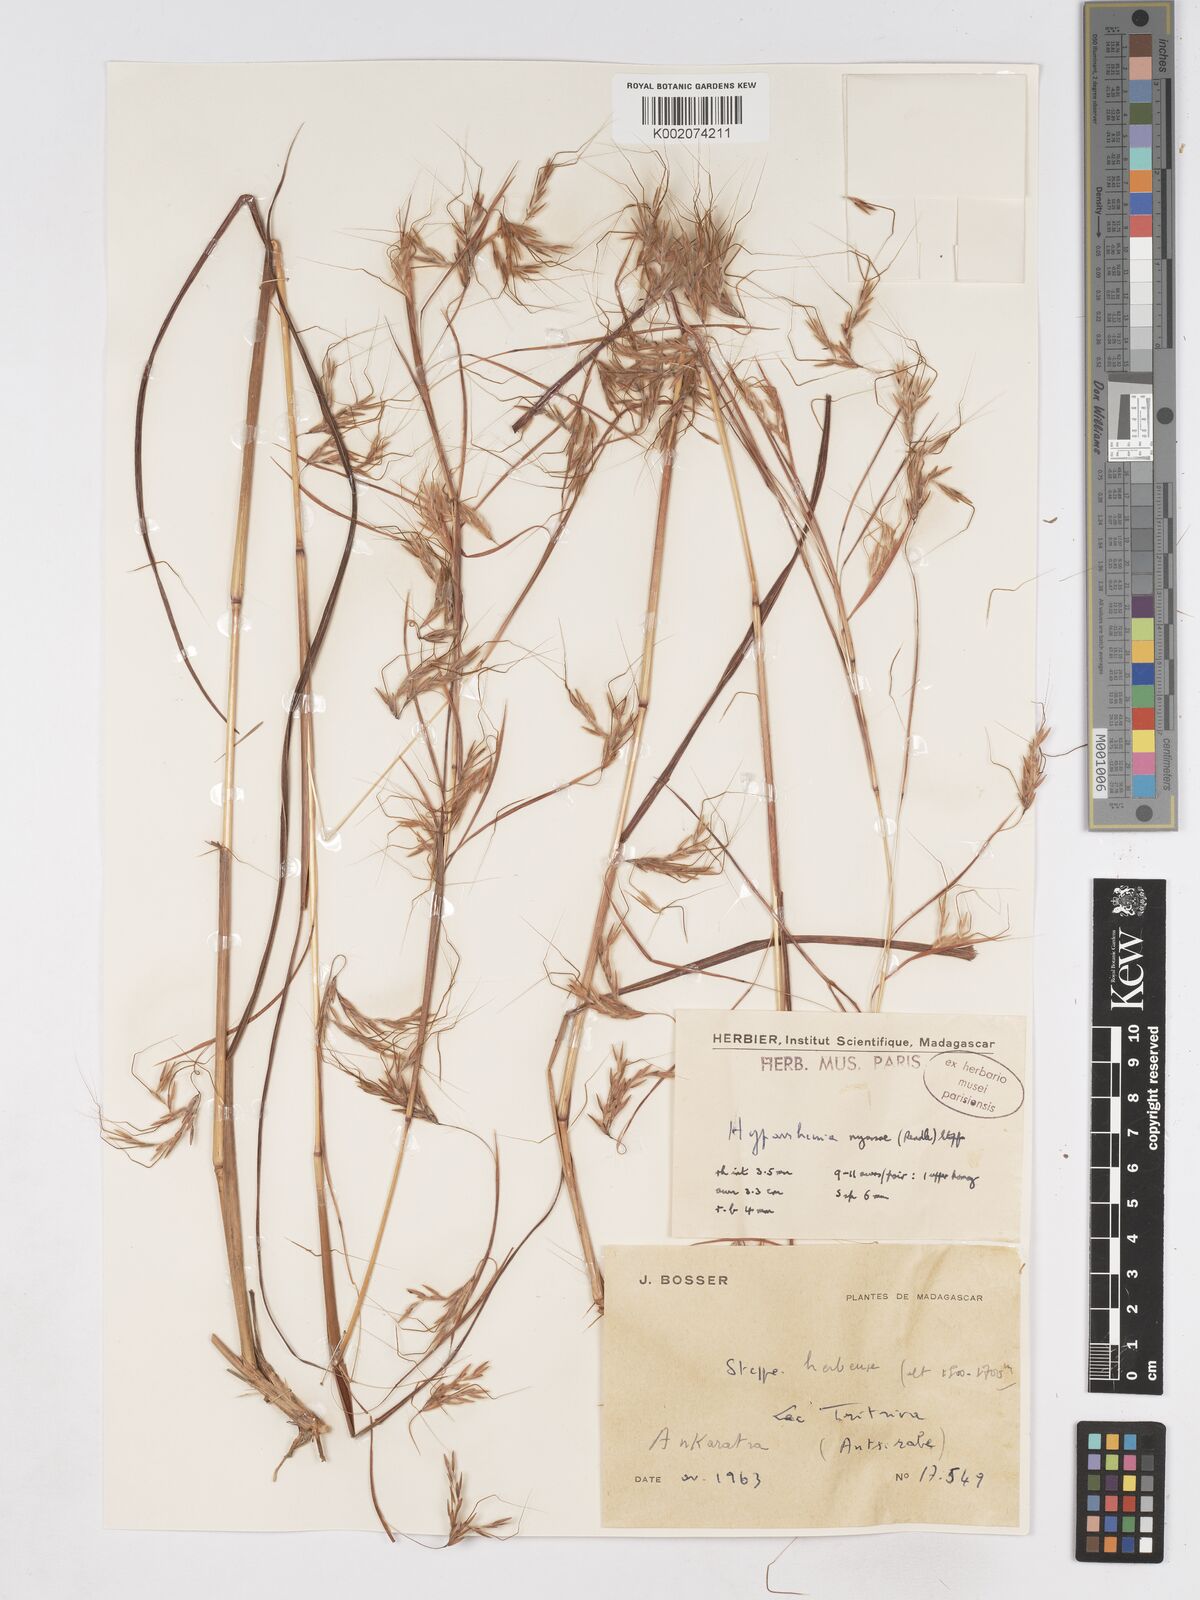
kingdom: Plantae
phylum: Tracheophyta
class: Liliopsida
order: Poales
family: Poaceae
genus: Hyparrhenia
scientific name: Hyparrhenia nyassae
